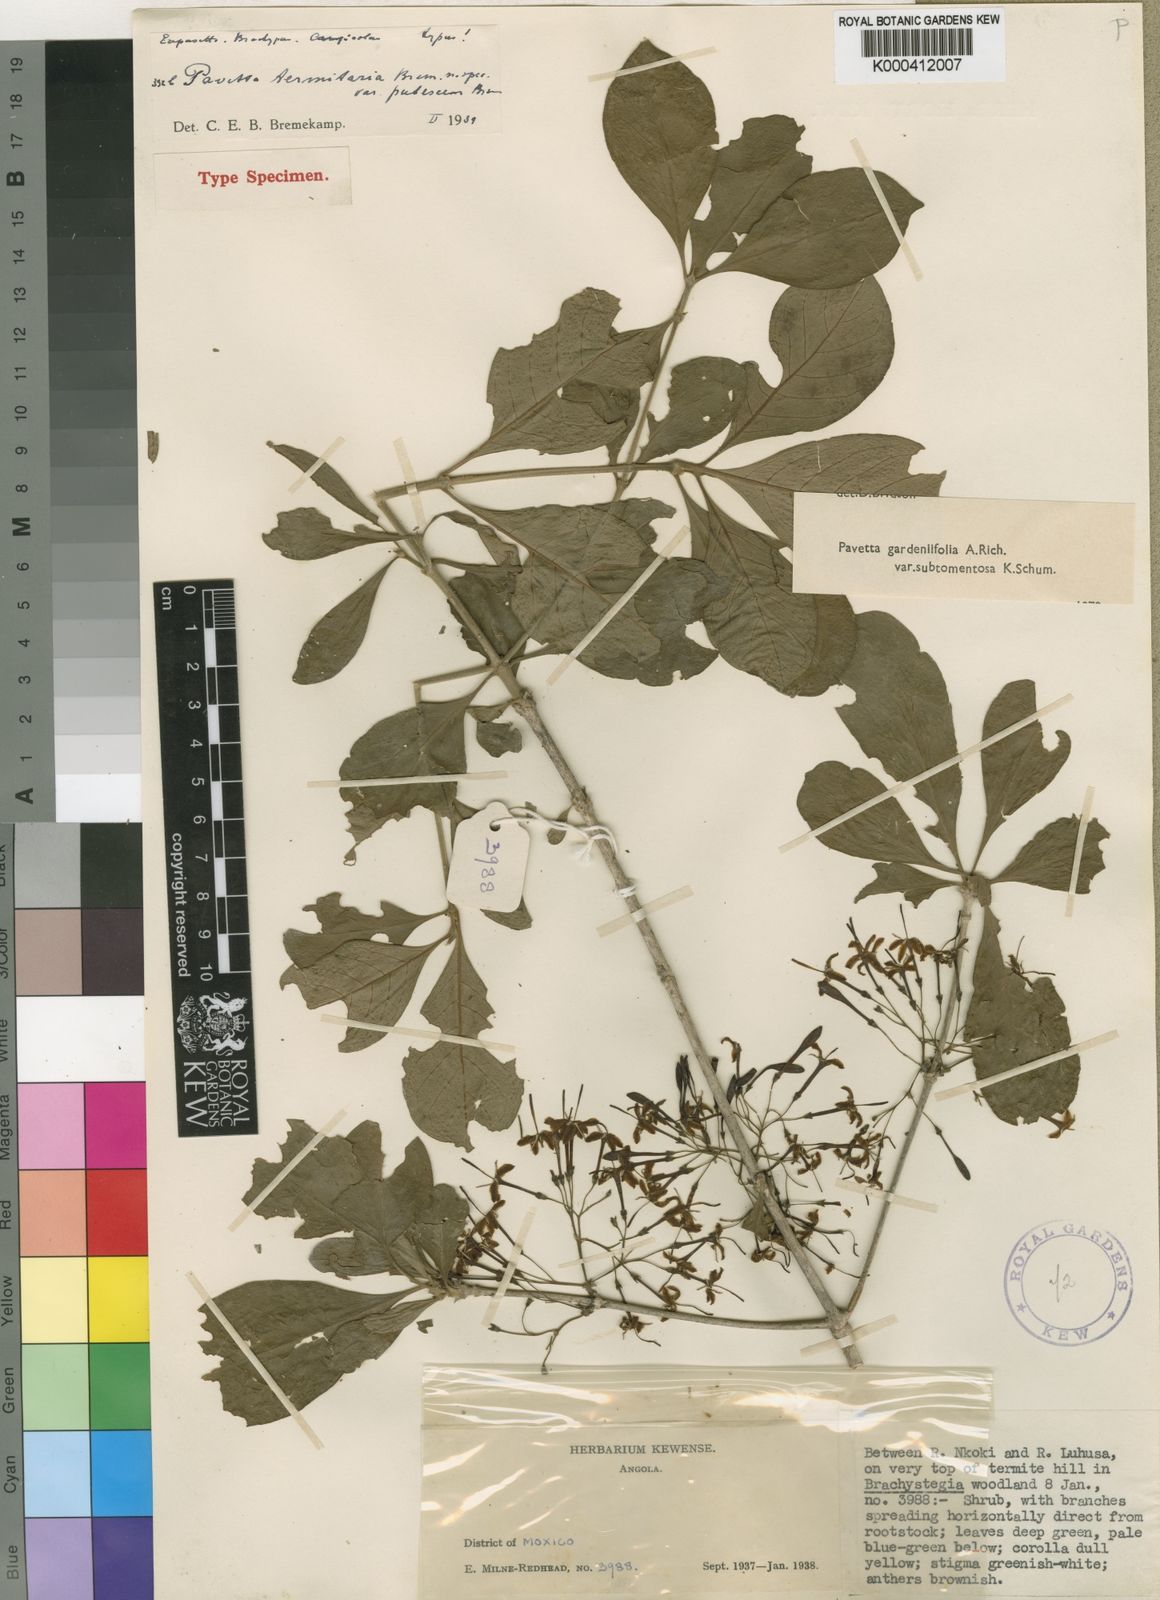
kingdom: Plantae
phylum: Tracheophyta
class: Magnoliopsida
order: Gentianales
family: Rubiaceae
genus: Pavetta
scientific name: Pavetta gardeniifolia
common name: Common brides-bush
